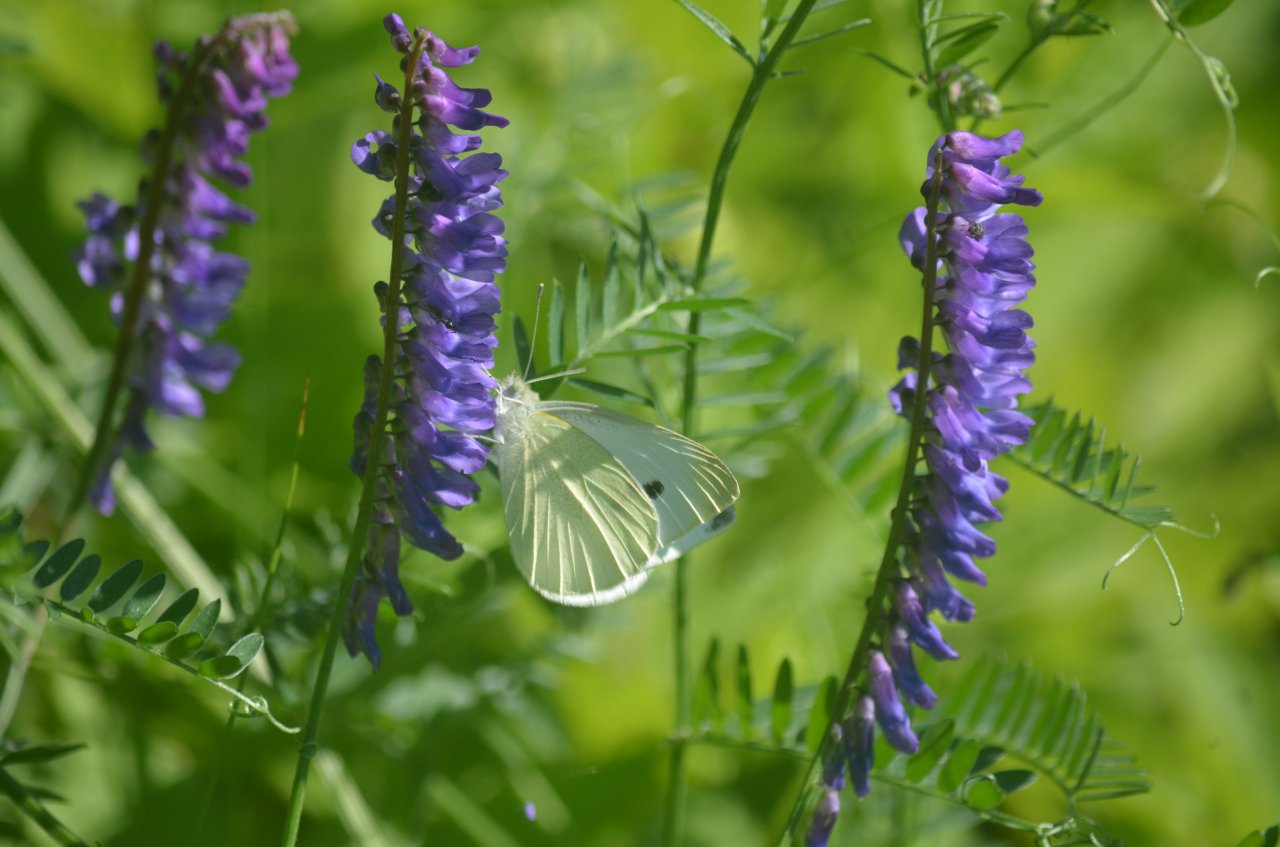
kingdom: Animalia
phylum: Arthropoda
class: Insecta
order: Lepidoptera
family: Pieridae
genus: Pieris
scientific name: Pieris rapae
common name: Cabbage White
